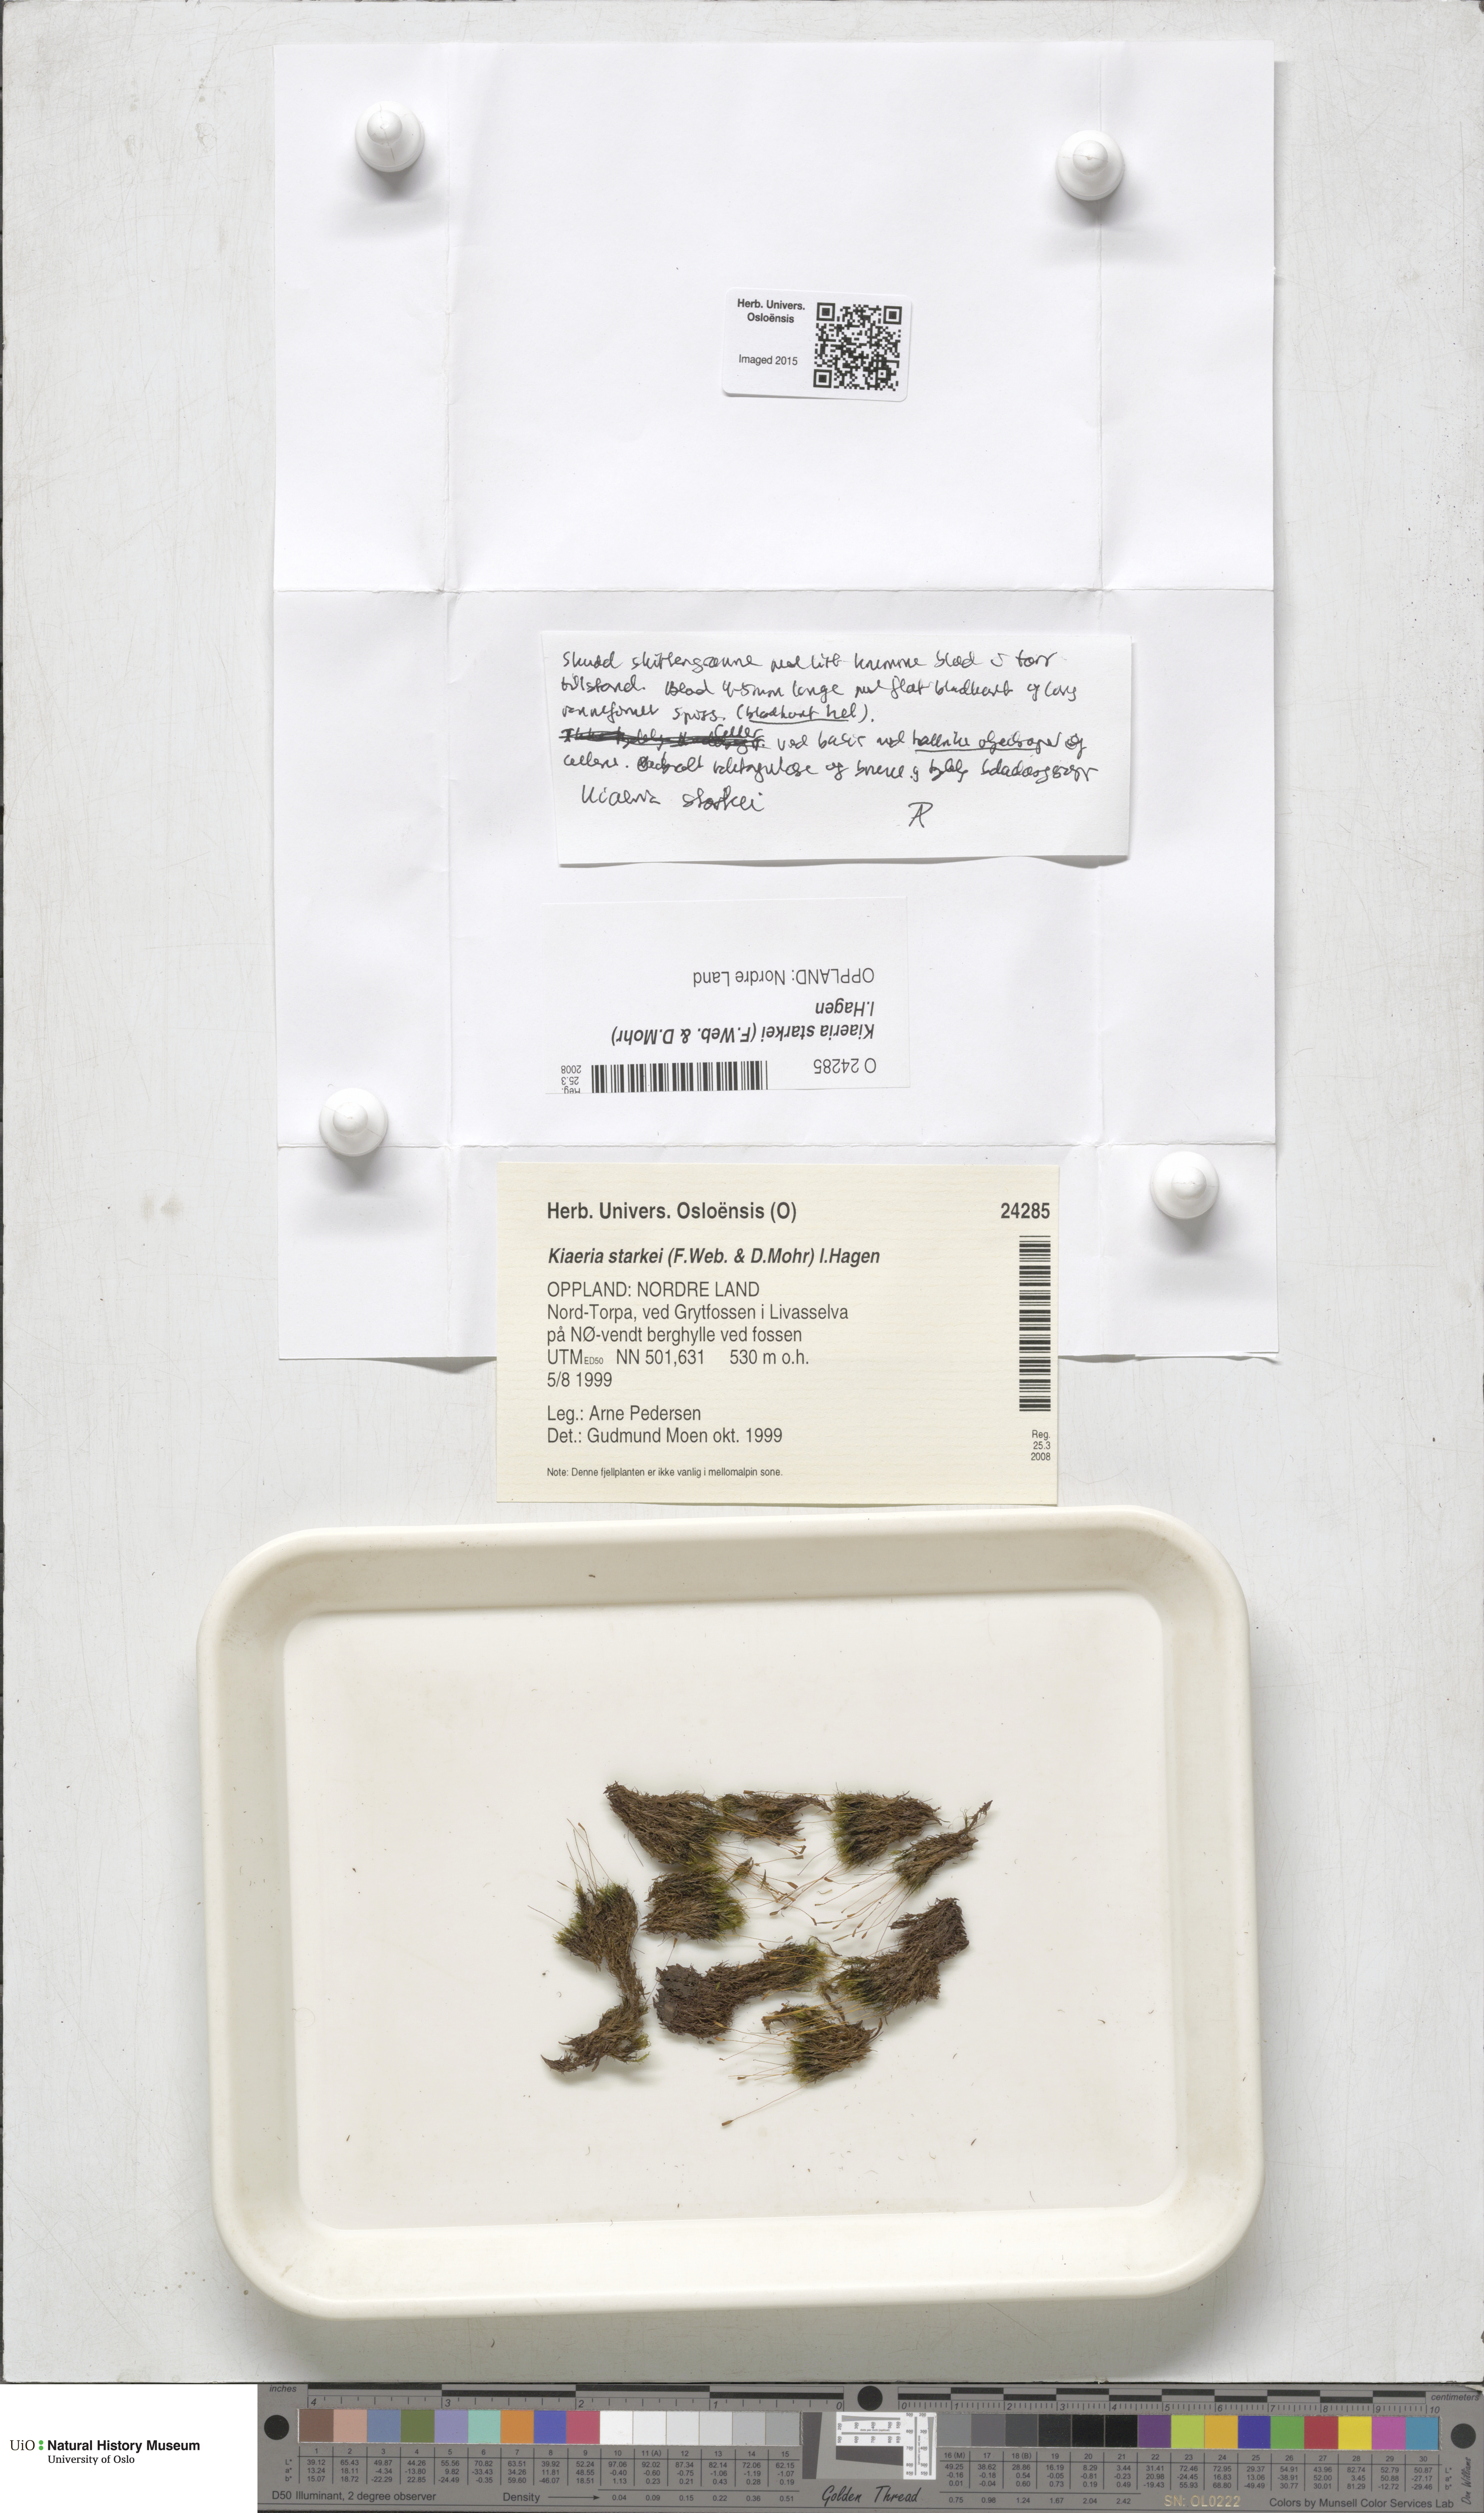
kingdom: Plantae
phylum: Bryophyta
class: Bryopsida
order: Dicranales
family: Rhabdoweisiaceae
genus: Arctoa
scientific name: Arctoa starkei
